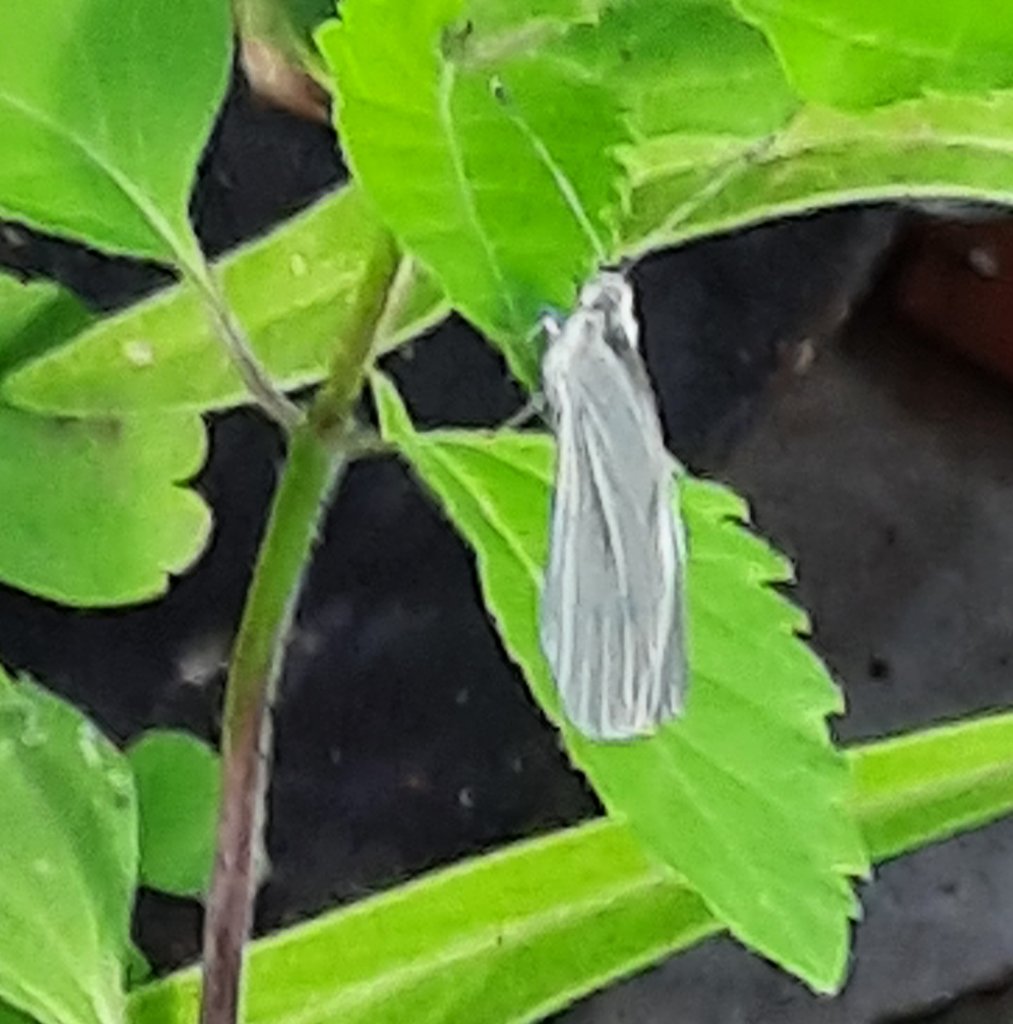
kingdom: Animalia
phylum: Arthropoda
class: Insecta
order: Lepidoptera
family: Pieridae
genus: Pieris
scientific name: Pieris rapae
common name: Cabbage White
